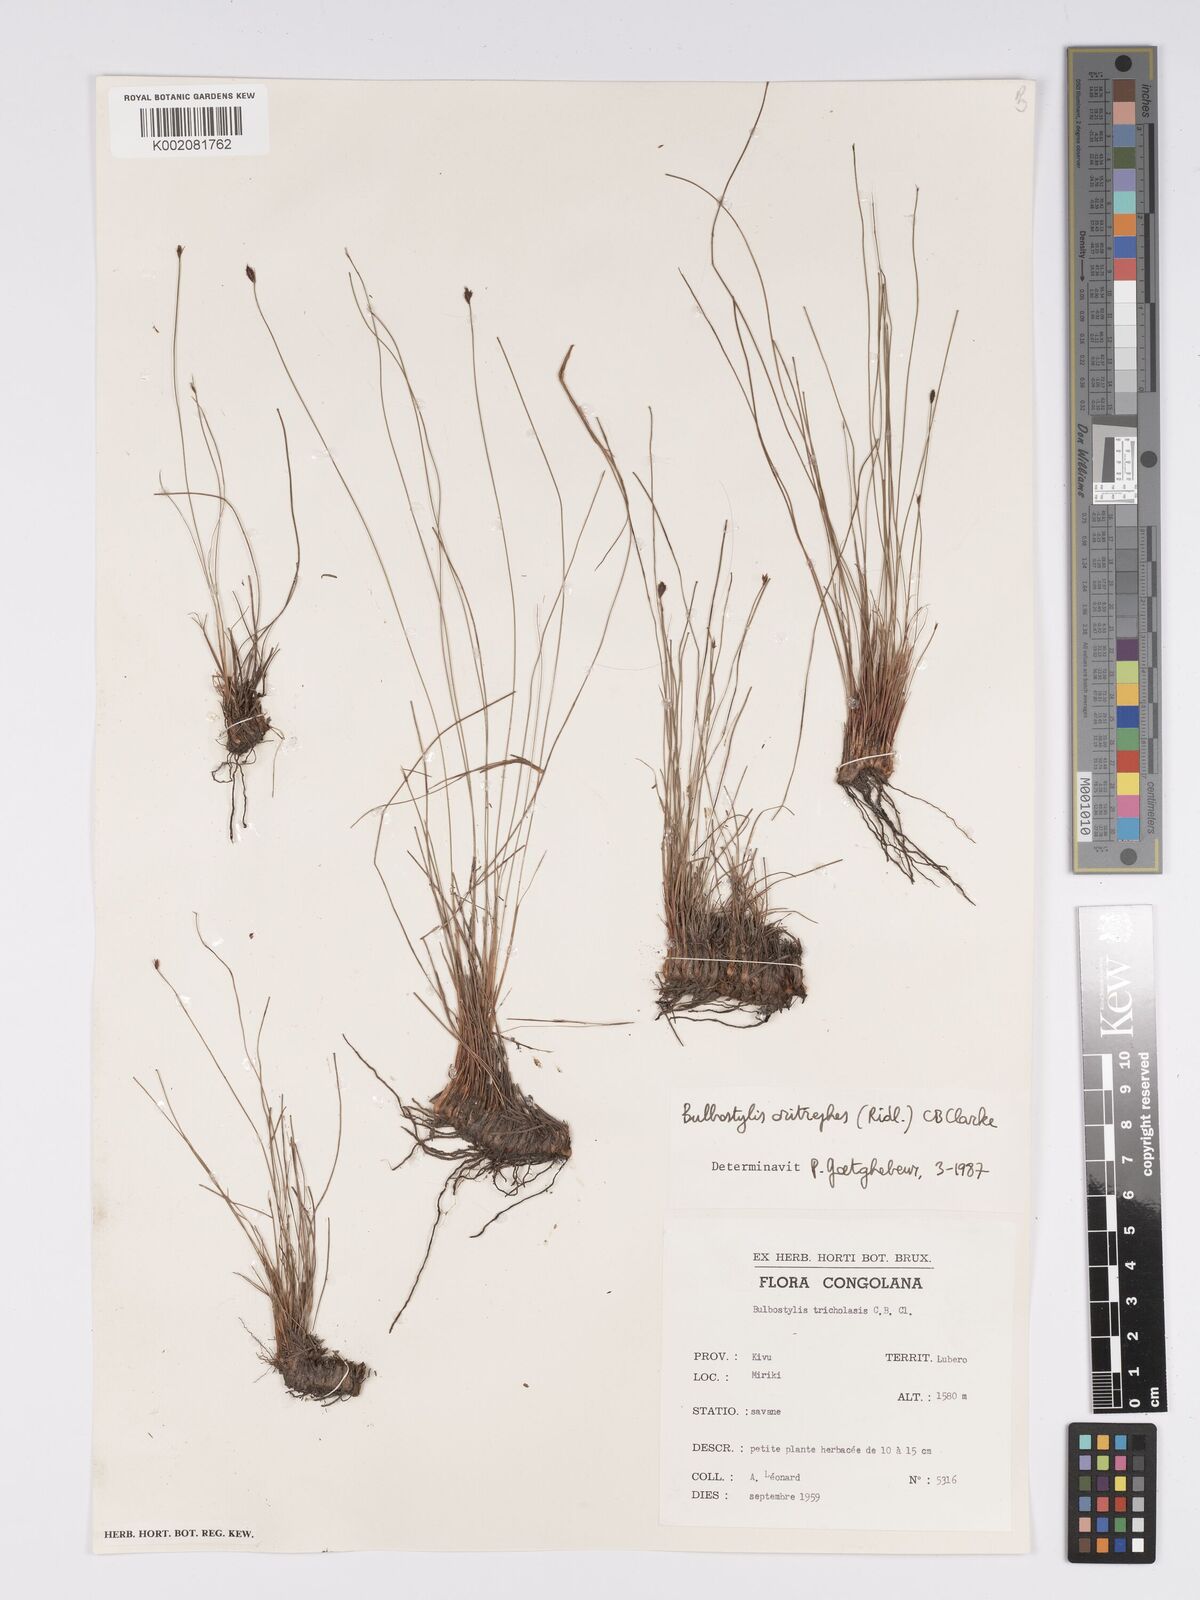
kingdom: Plantae
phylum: Tracheophyta
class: Liliopsida
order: Poales
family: Cyperaceae
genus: Bulbostylis
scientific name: Bulbostylis oritrephes
